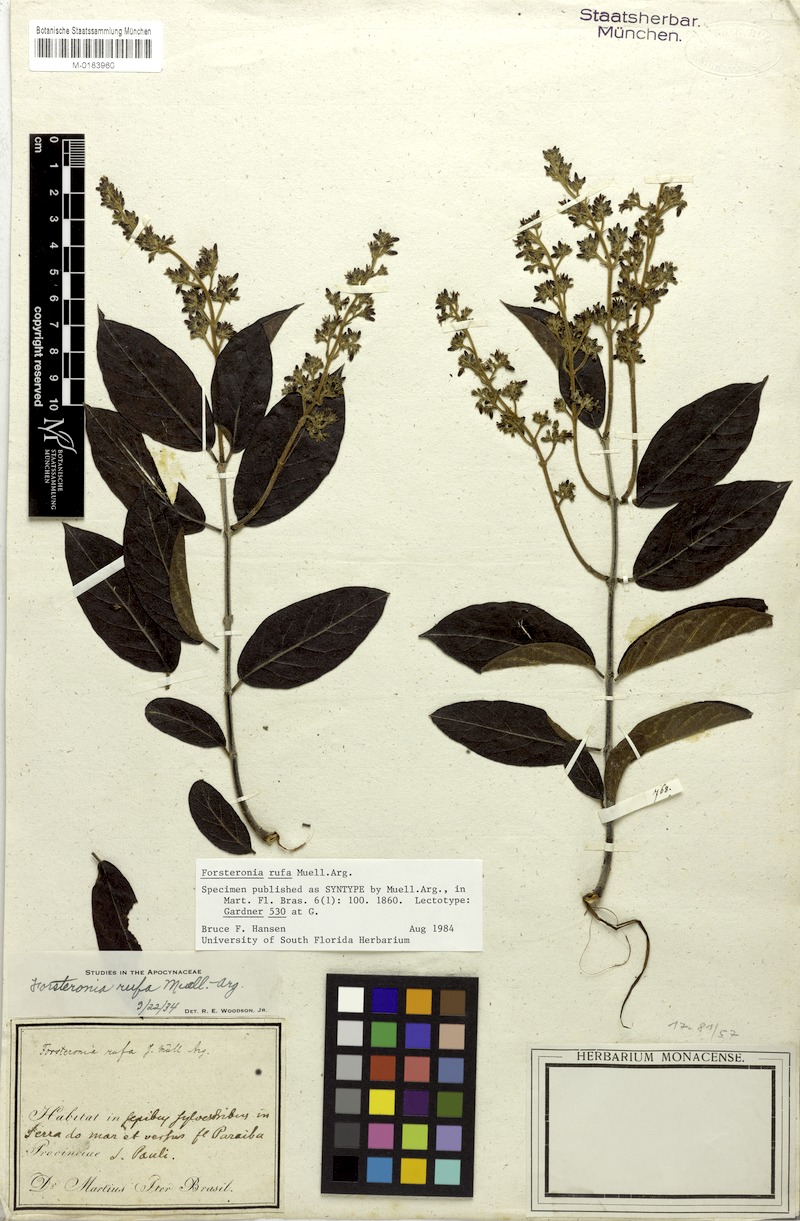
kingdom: Plantae
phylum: Tracheophyta
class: Magnoliopsida
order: Gentianales
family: Apocynaceae
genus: Forsteronia
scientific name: Forsteronia rufa
